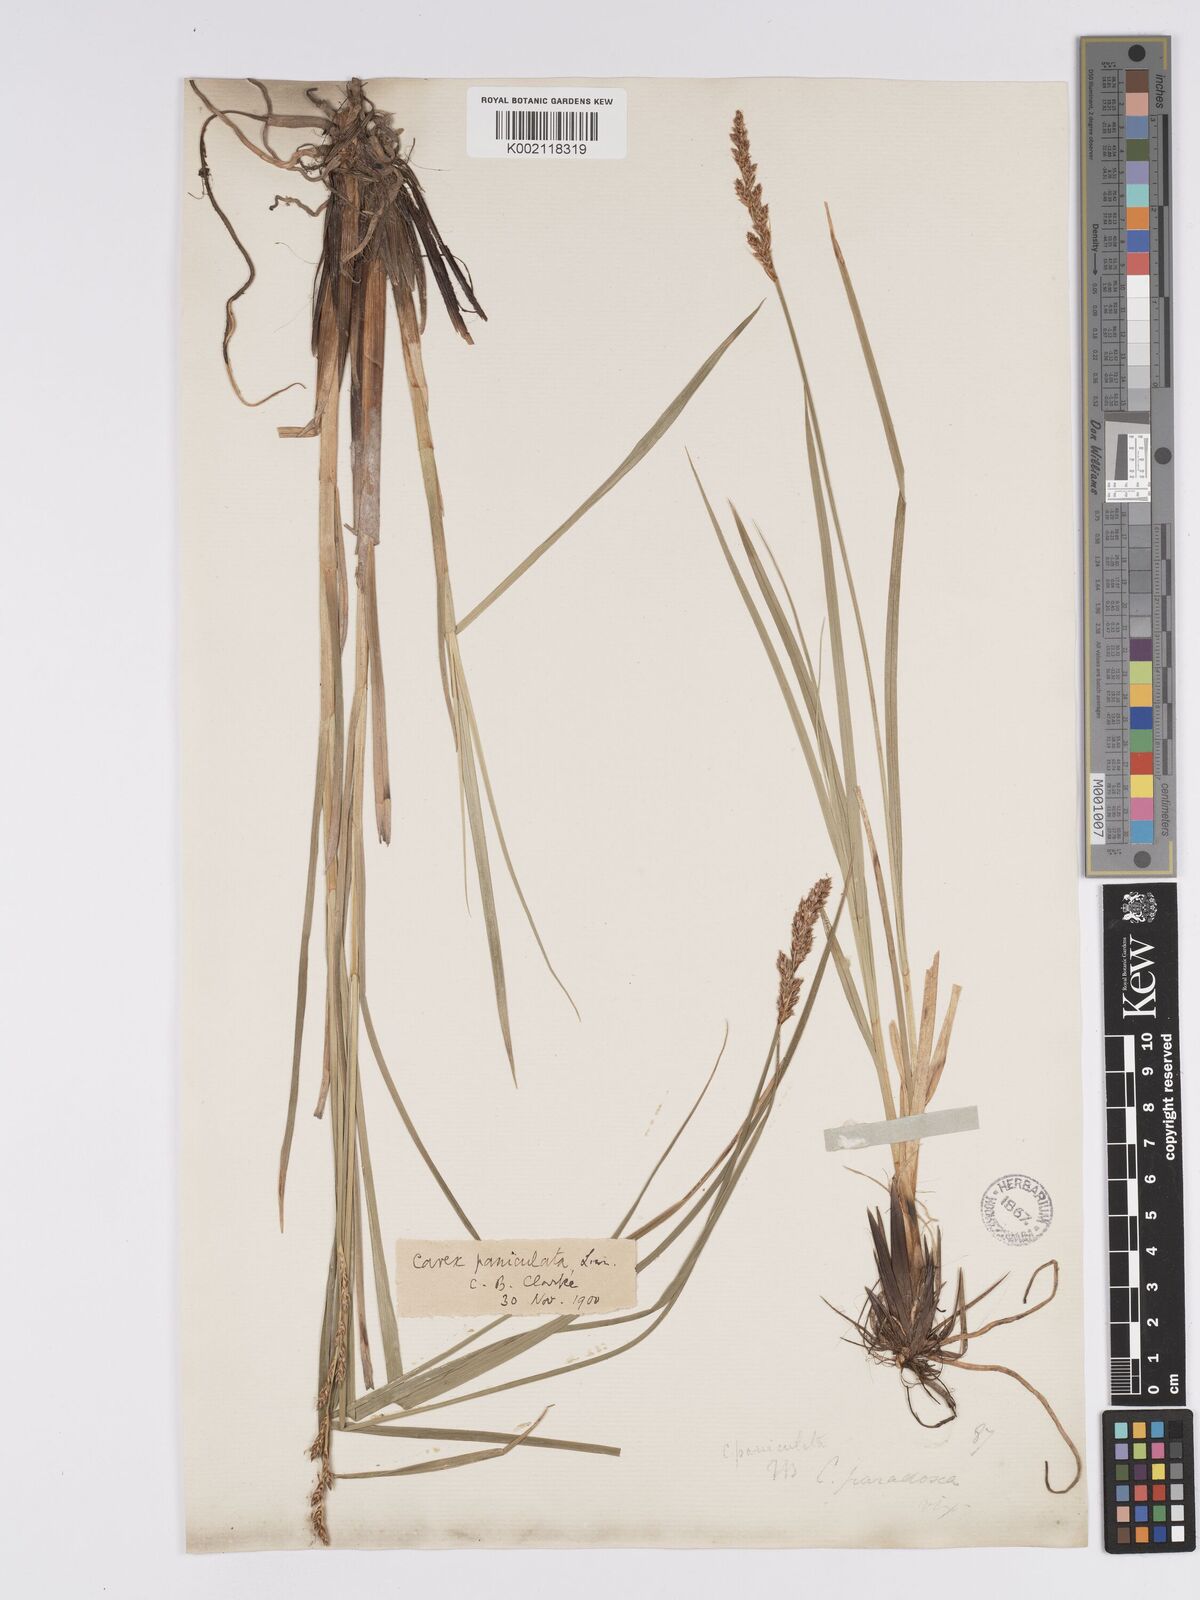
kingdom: Plantae
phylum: Tracheophyta
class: Liliopsida
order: Poales
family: Cyperaceae
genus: Carex
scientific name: Carex paniculata
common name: Greater tussock-sedge
